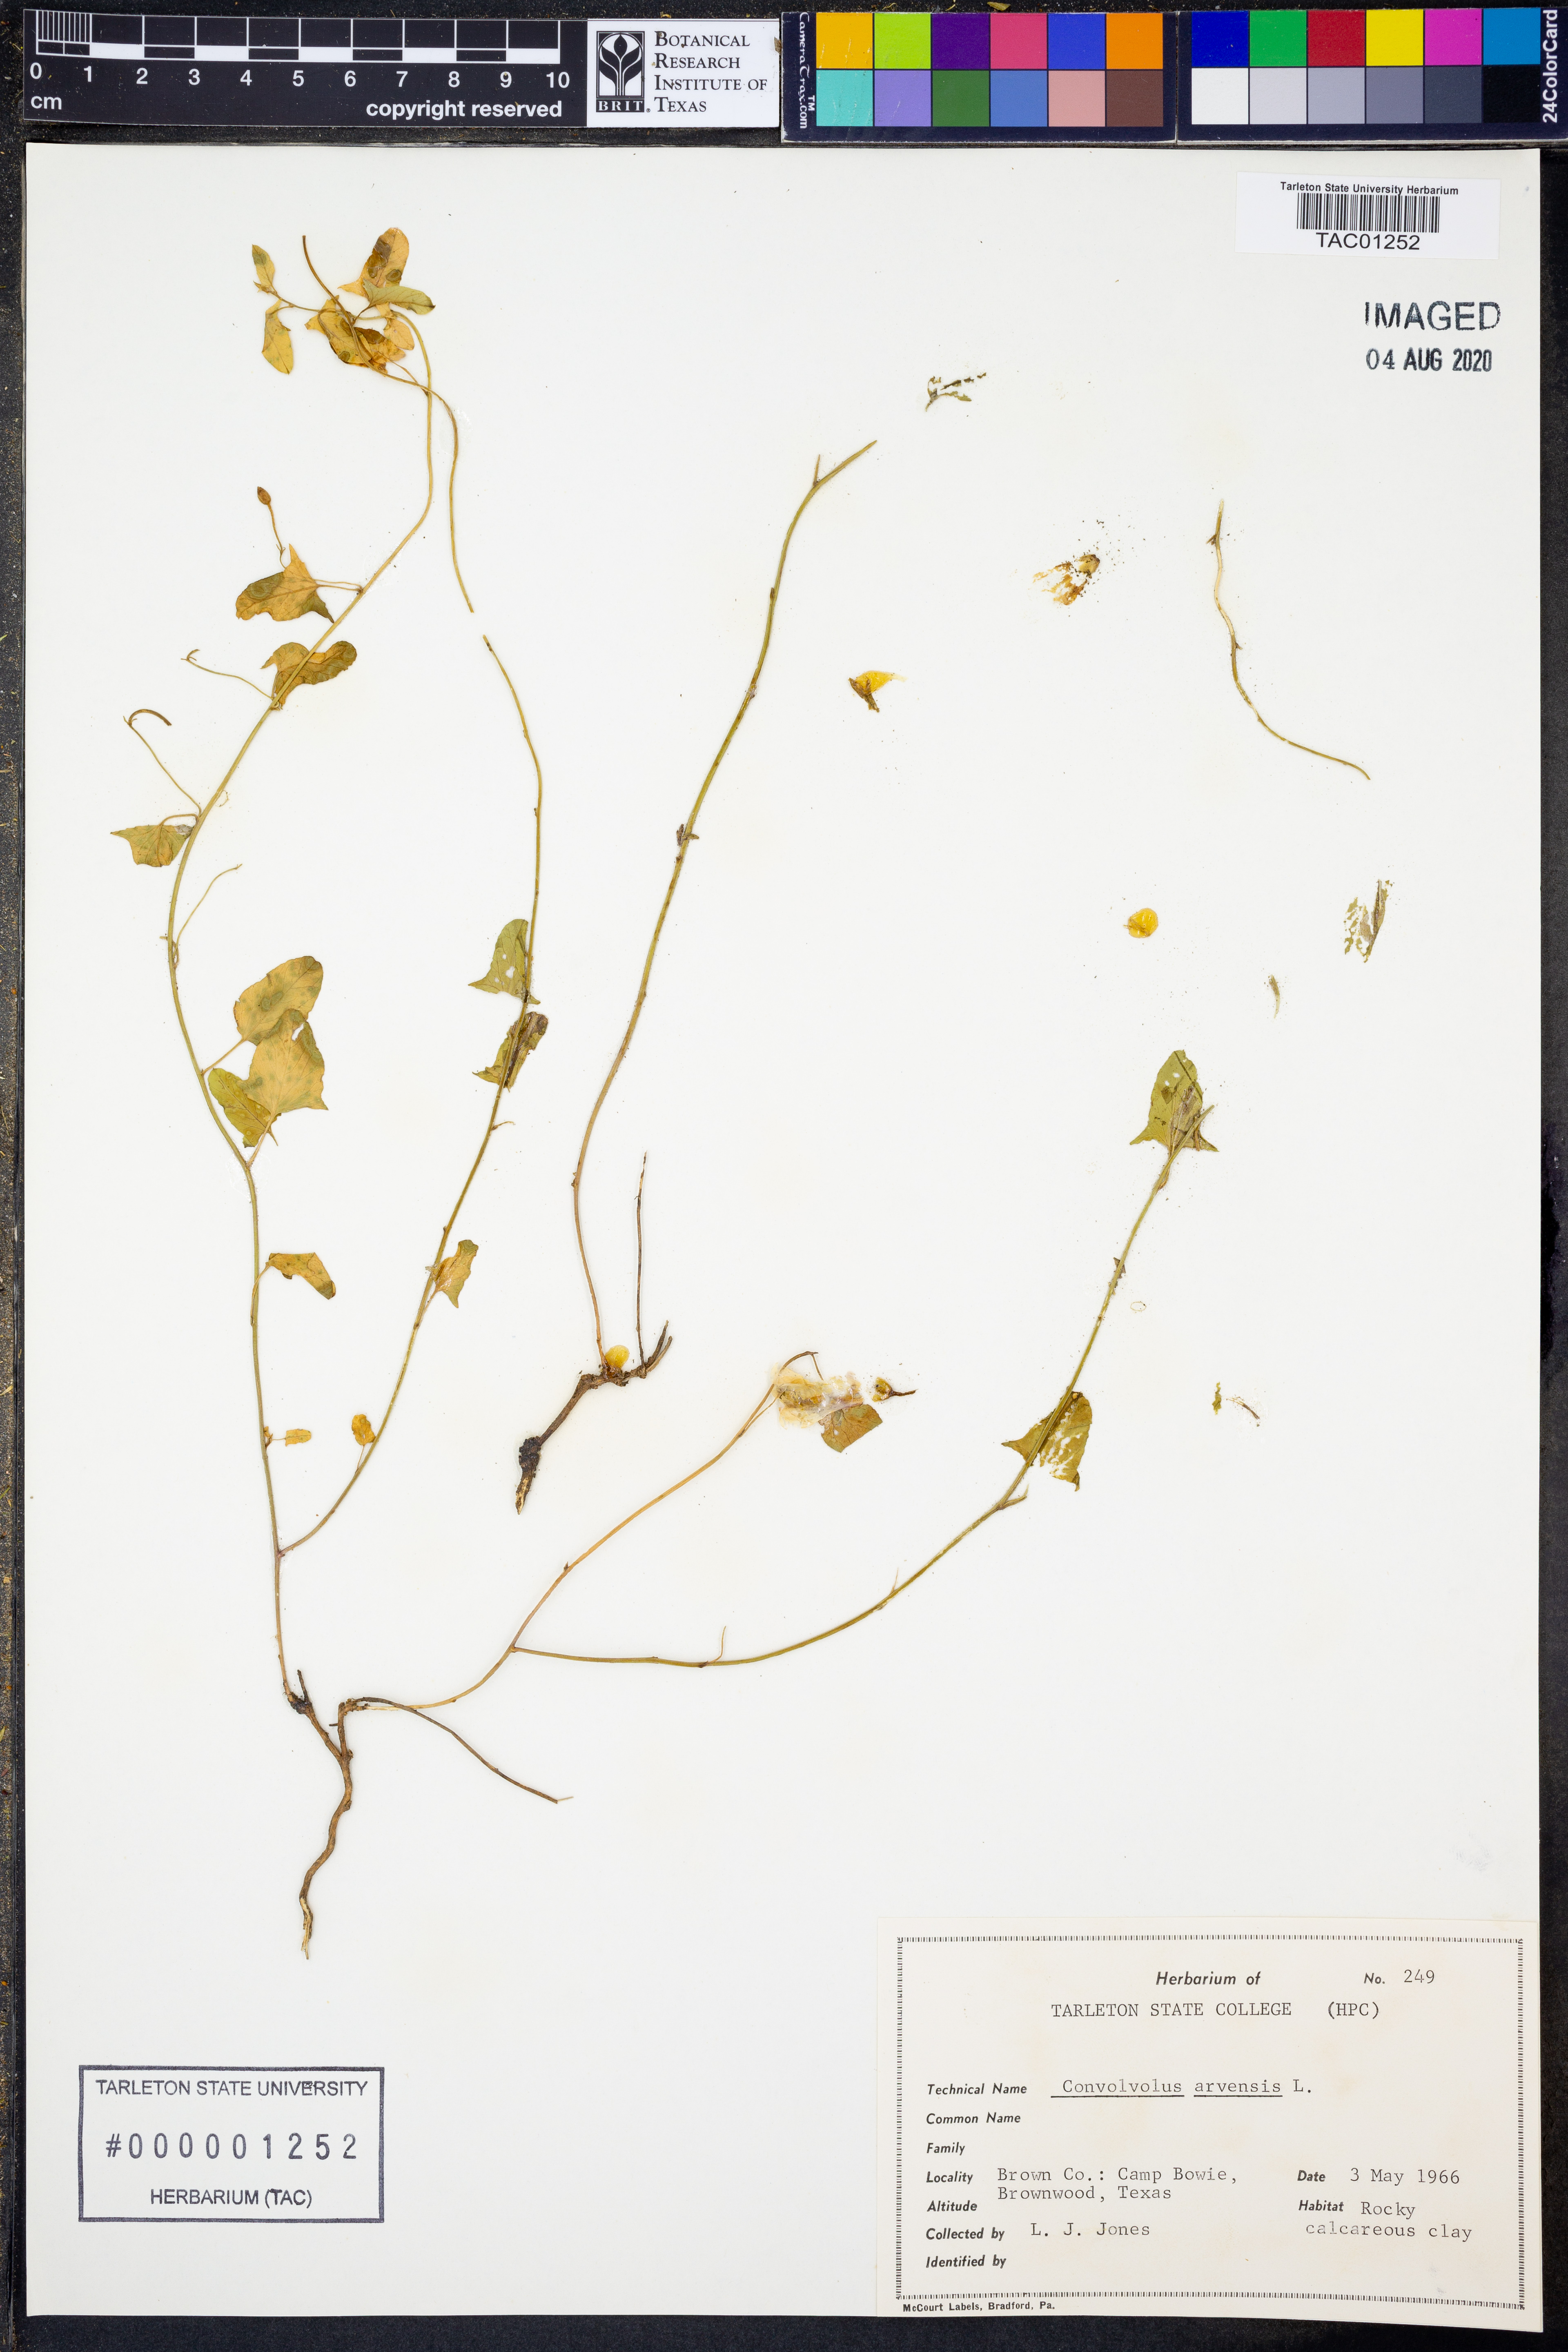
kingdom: Plantae
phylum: Tracheophyta
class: Magnoliopsida
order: Solanales
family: Convolvulaceae
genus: Convolvulus
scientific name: Convolvulus arvensis
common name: Field bindweed
